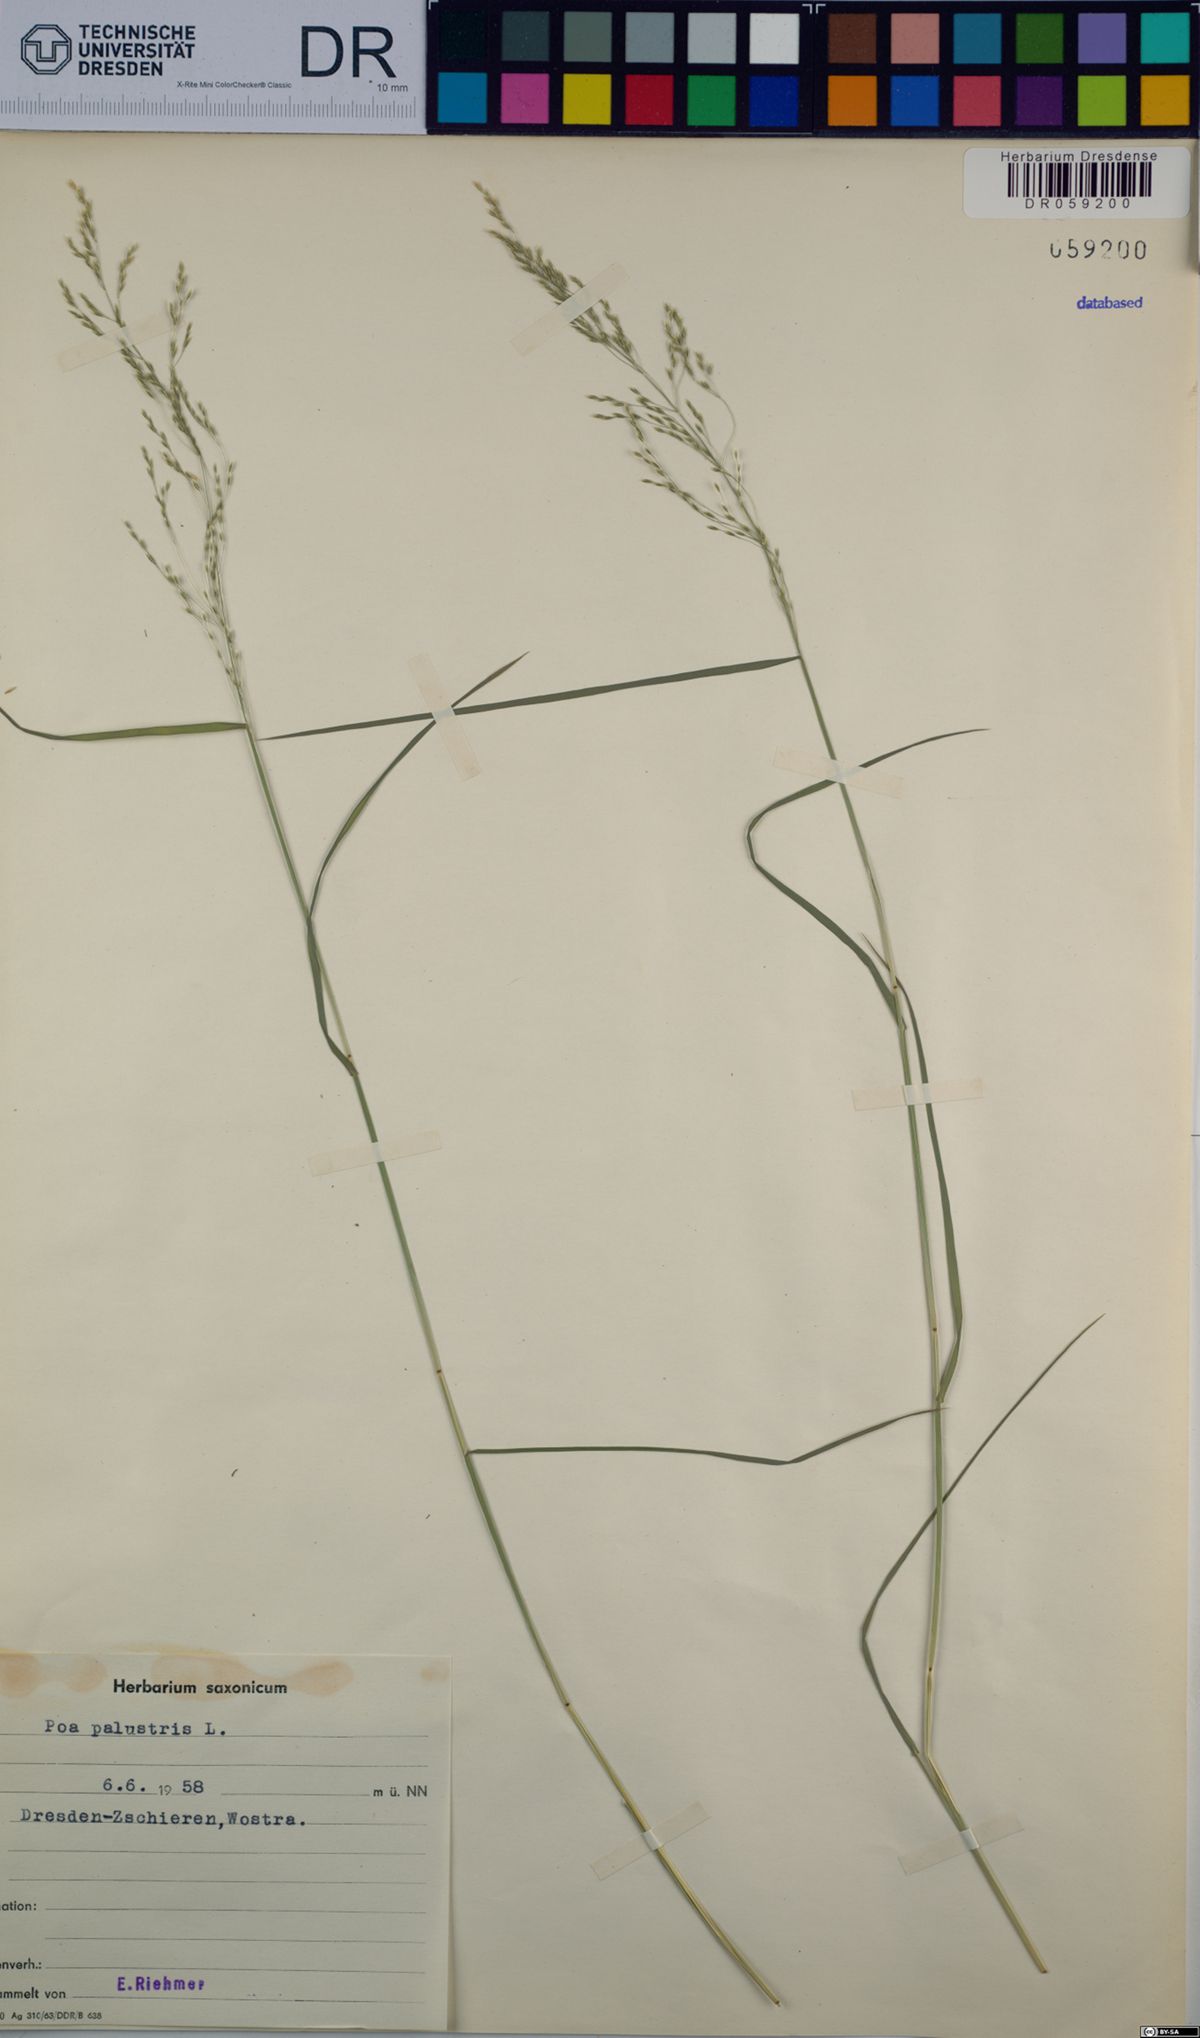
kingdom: Plantae
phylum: Tracheophyta
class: Liliopsida
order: Poales
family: Poaceae
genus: Poa
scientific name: Poa palustris
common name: Swamp meadow-grass
